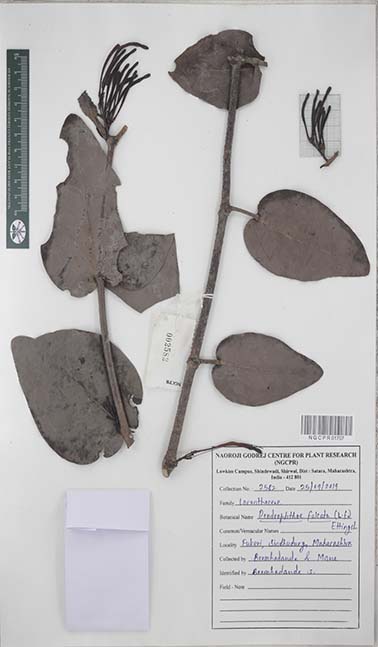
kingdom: Plantae
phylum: Tracheophyta
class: Magnoliopsida
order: Santalales
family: Loranthaceae
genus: Dendrophthoe
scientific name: Dendrophthoe falcata
